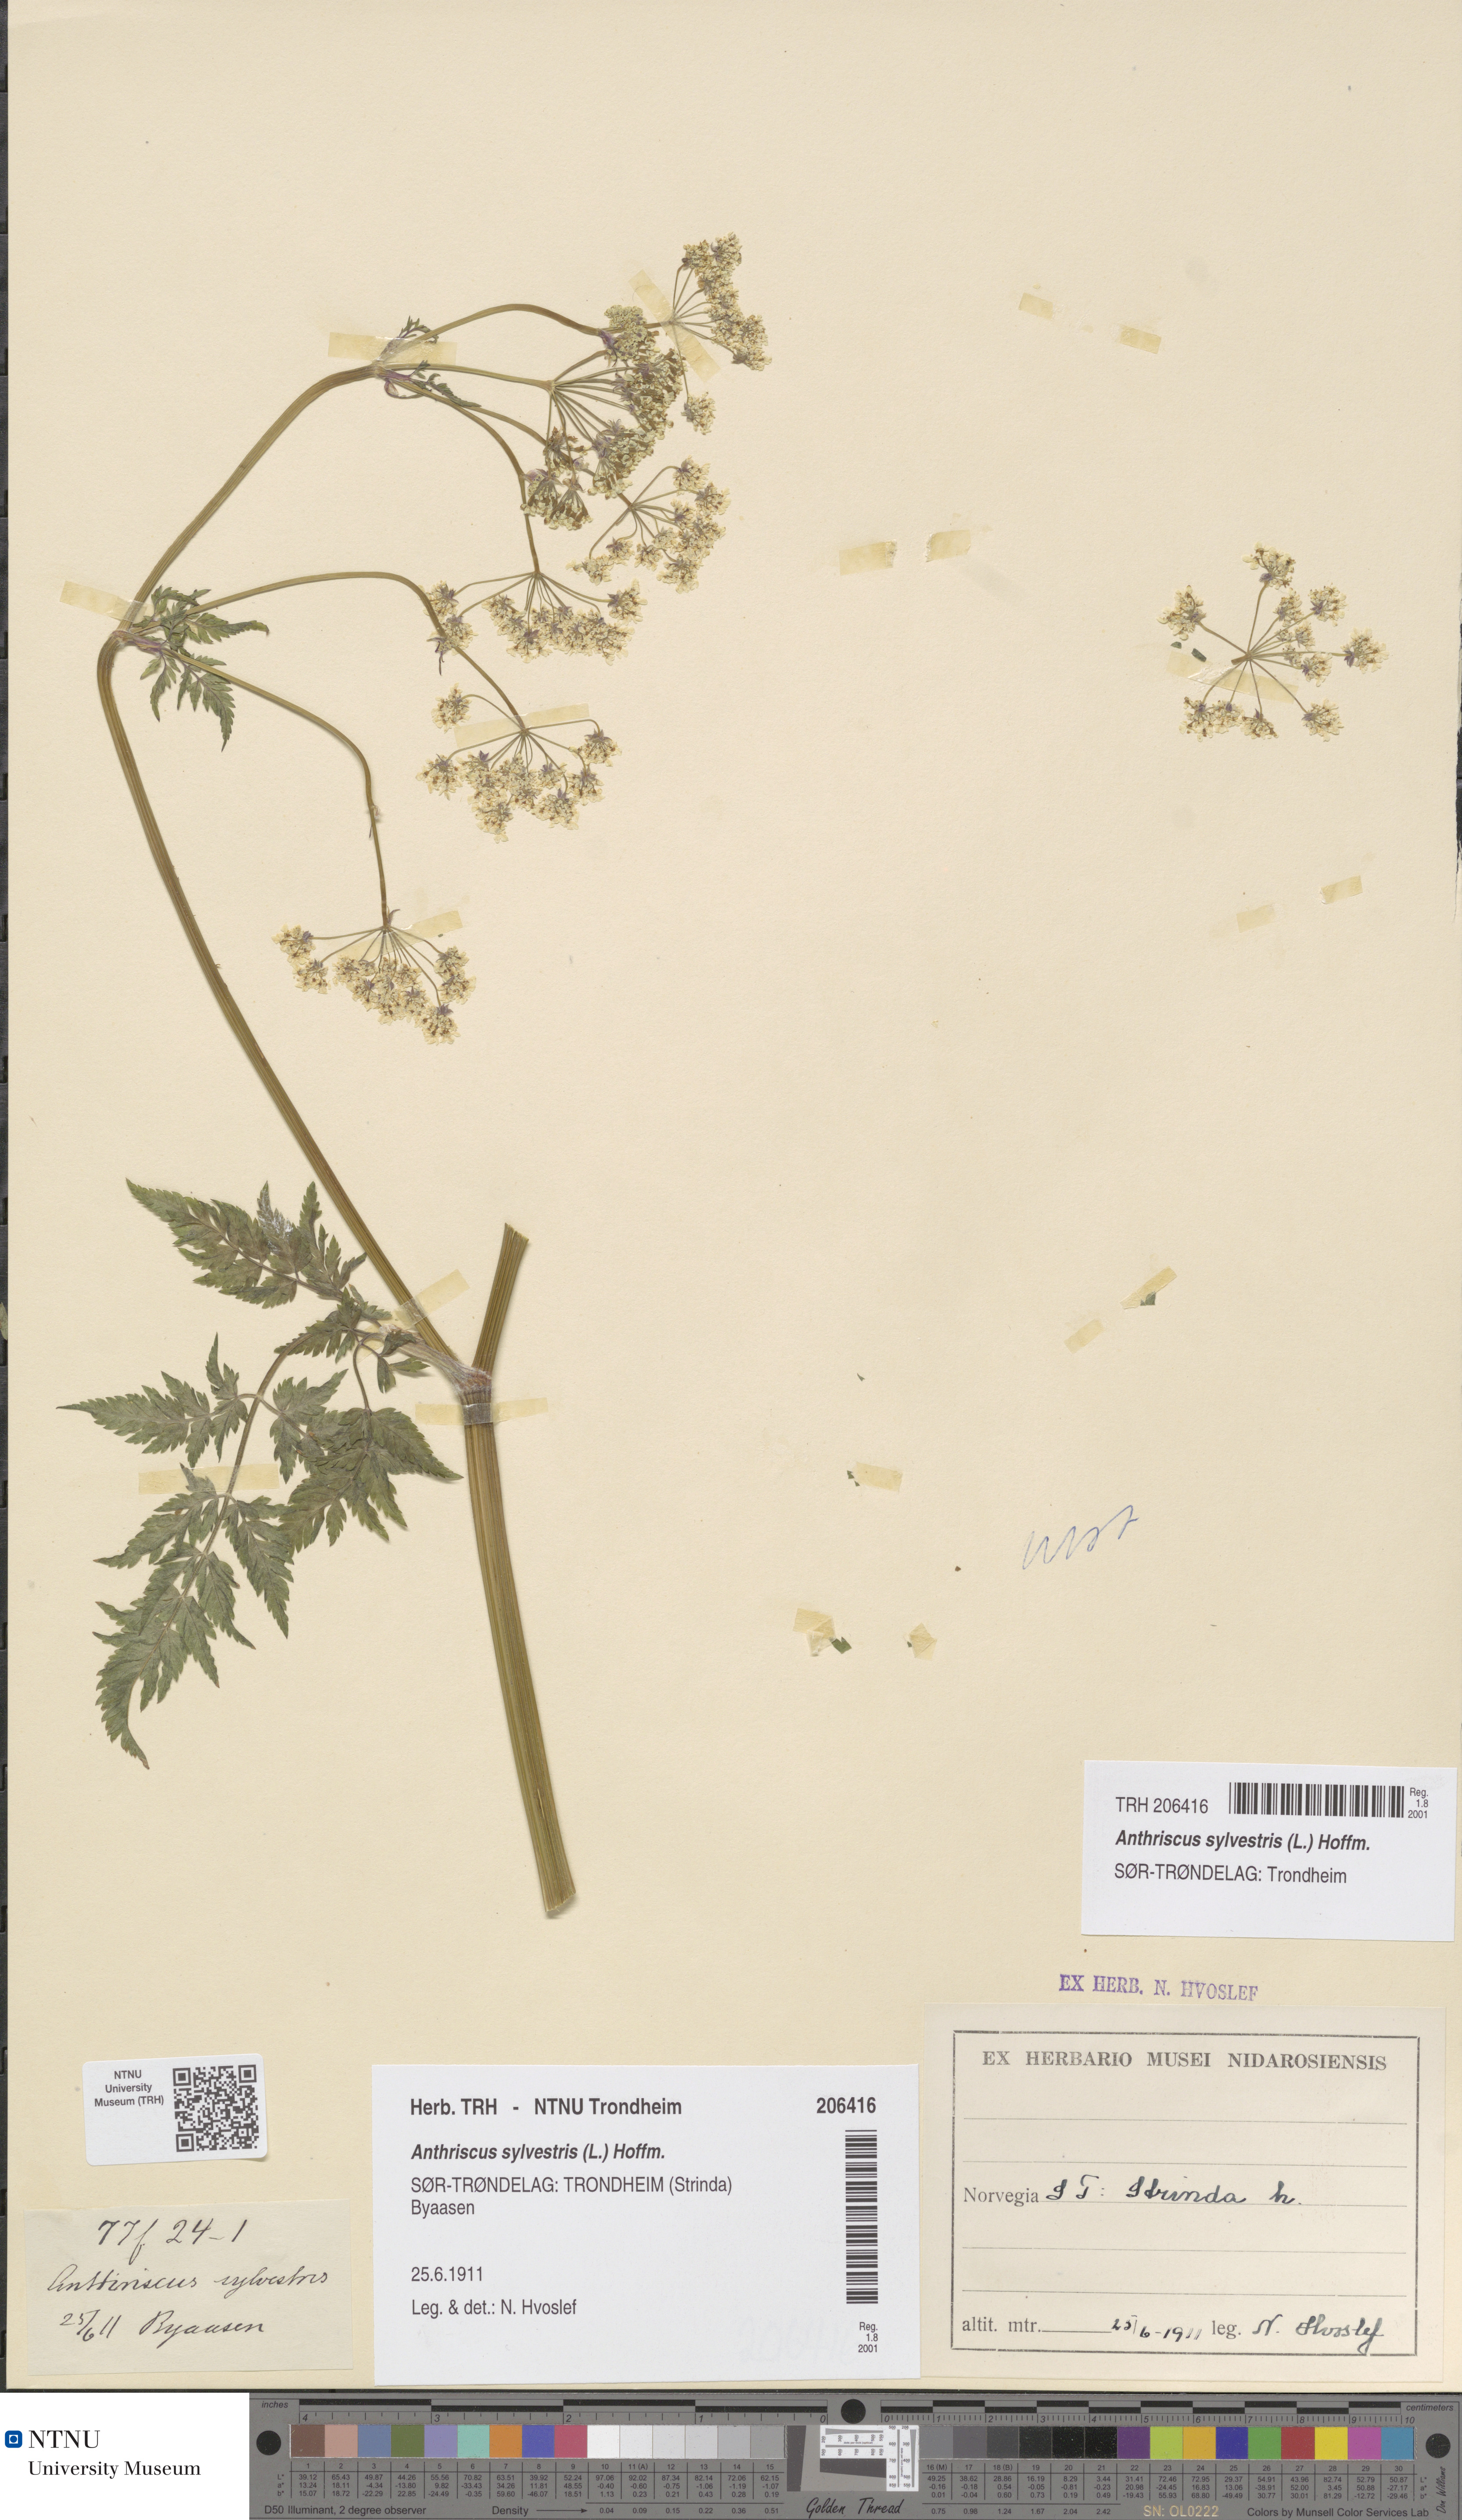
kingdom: Plantae
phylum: Tracheophyta
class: Magnoliopsida
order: Apiales
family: Apiaceae
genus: Anthriscus
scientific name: Anthriscus sylvestris
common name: Cow parsley
